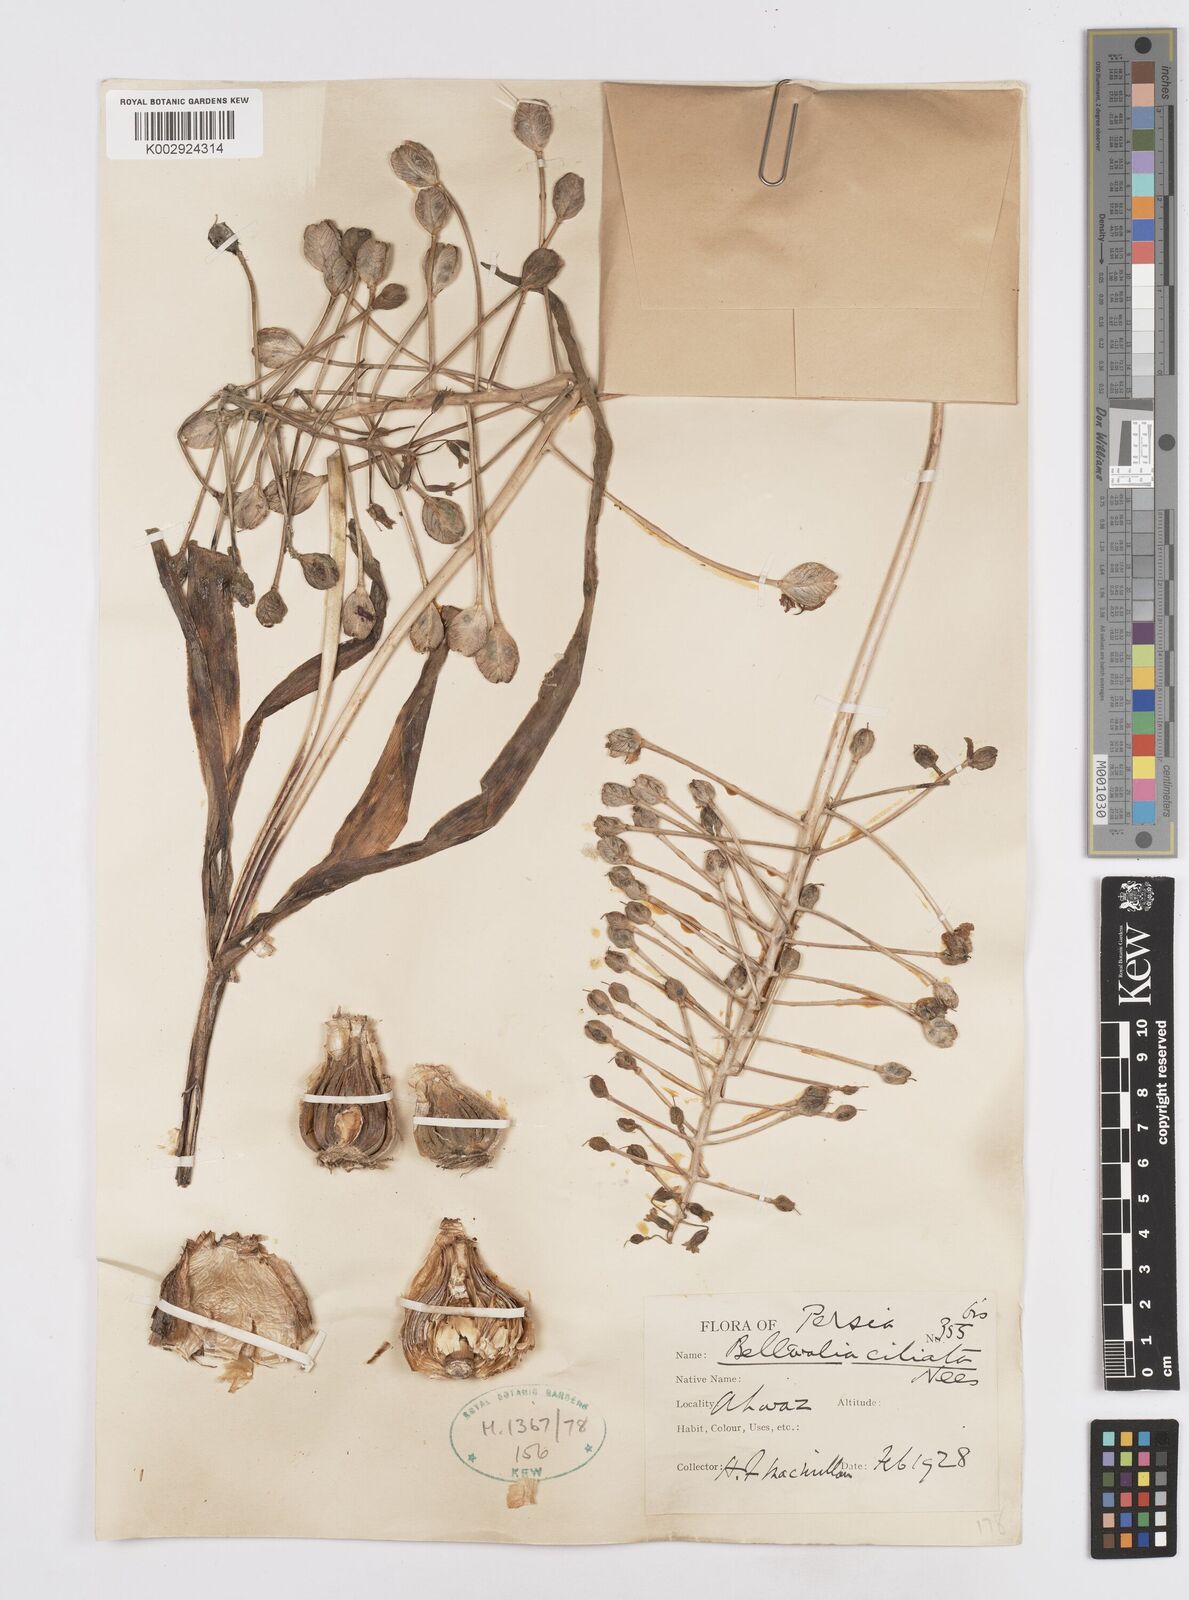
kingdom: Plantae
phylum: Tracheophyta
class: Liliopsida
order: Asparagales
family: Asparagaceae
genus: Bellevalia
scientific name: Bellevalia ciliata
